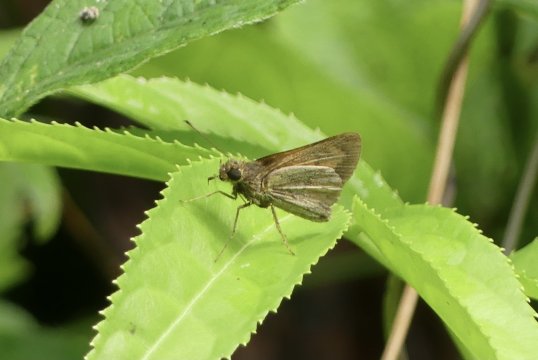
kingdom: Animalia
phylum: Arthropoda
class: Insecta
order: Lepidoptera
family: Hesperiidae
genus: Anthoptus
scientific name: Anthoptus epictetus
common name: Trailside Skipper
